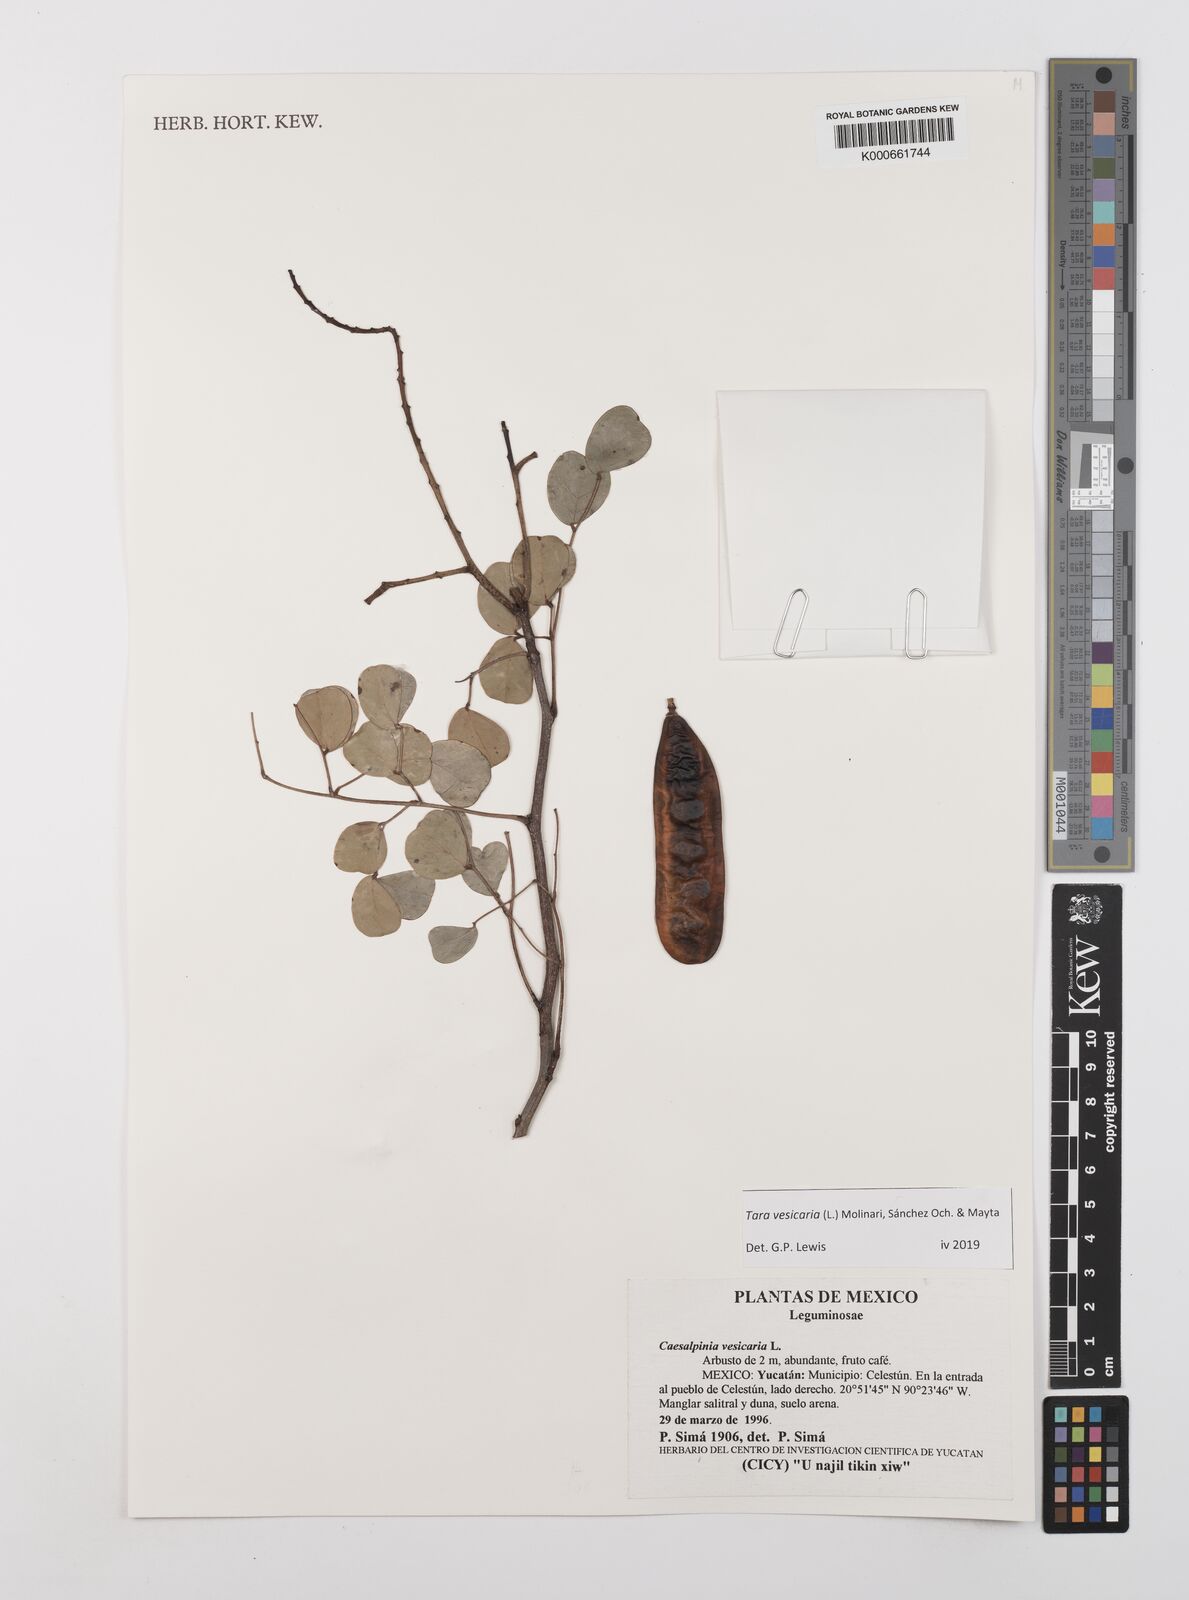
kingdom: Plantae
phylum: Tracheophyta
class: Magnoliopsida
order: Fabales
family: Fabaceae
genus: Tara
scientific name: Tara vesicaria
